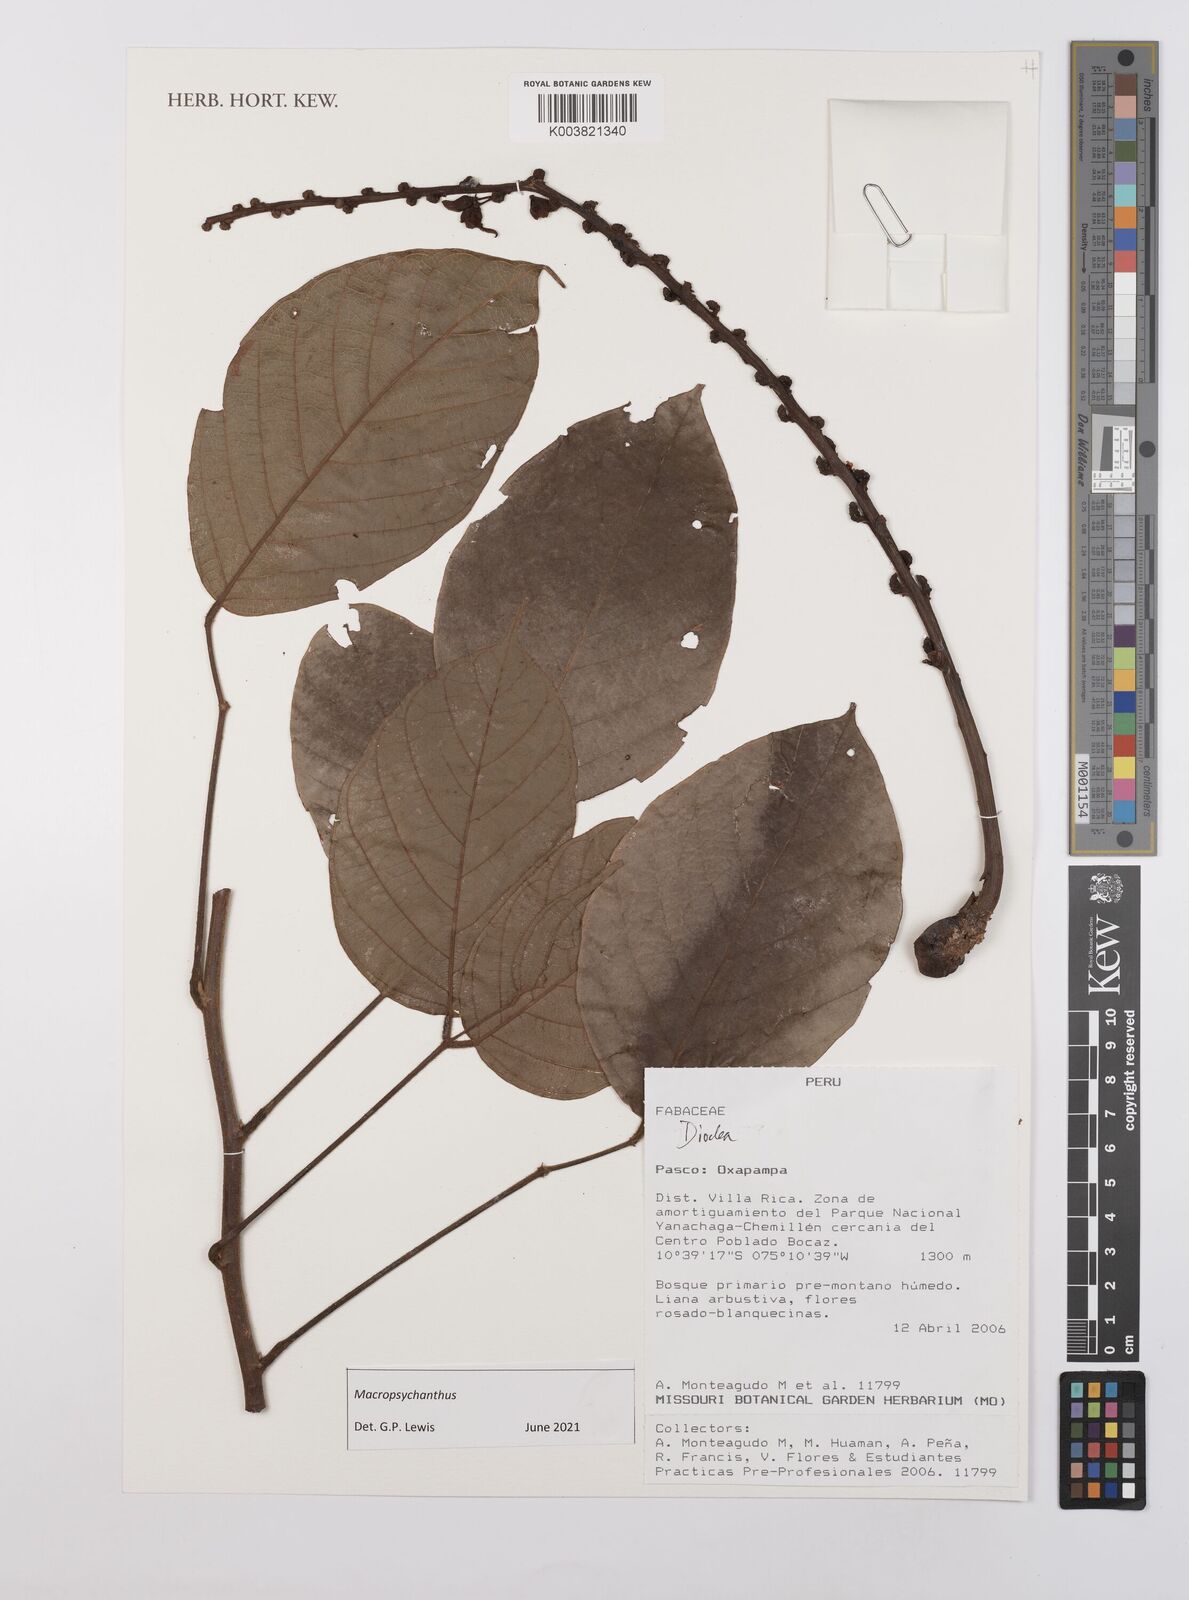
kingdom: Plantae
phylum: Tracheophyta
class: Magnoliopsida
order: Fabales
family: Fabaceae
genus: Macropsychanthus
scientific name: Macropsychanthus
